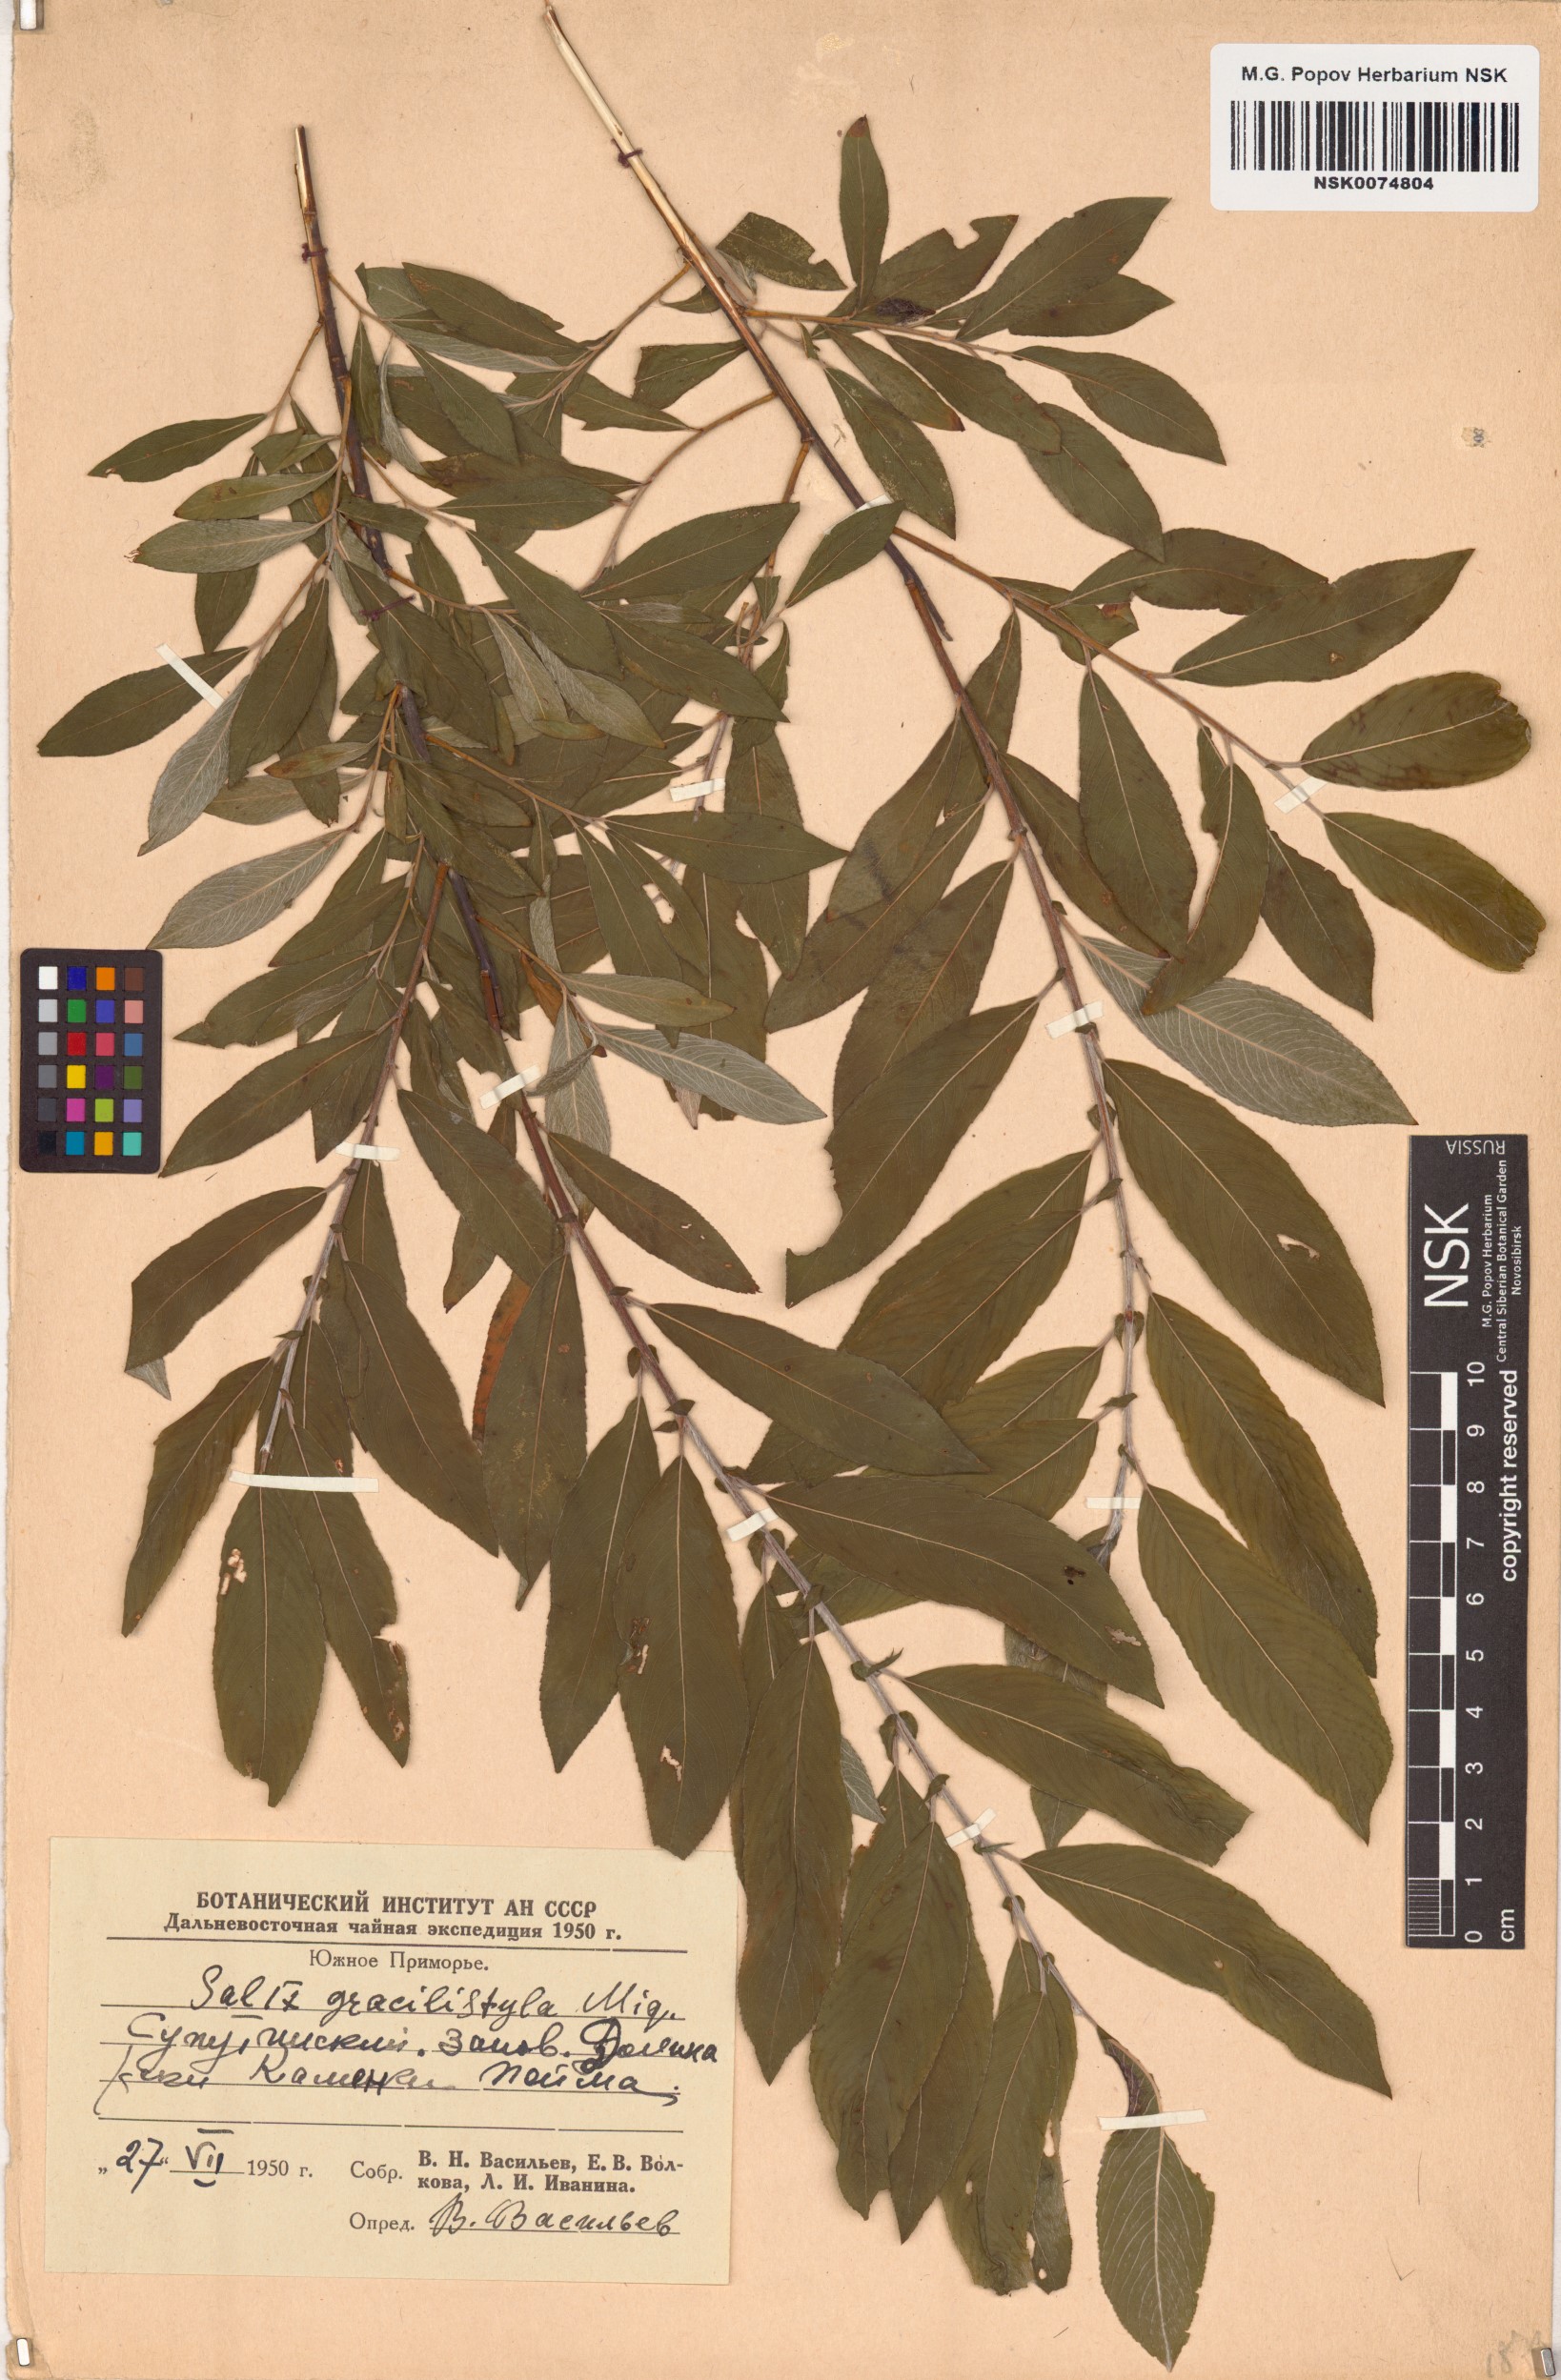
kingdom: Plantae
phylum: Tracheophyta
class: Magnoliopsida
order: Malpighiales
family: Salicaceae
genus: Salix
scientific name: Salix gracilistyla
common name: Rose-gold pussy willow
